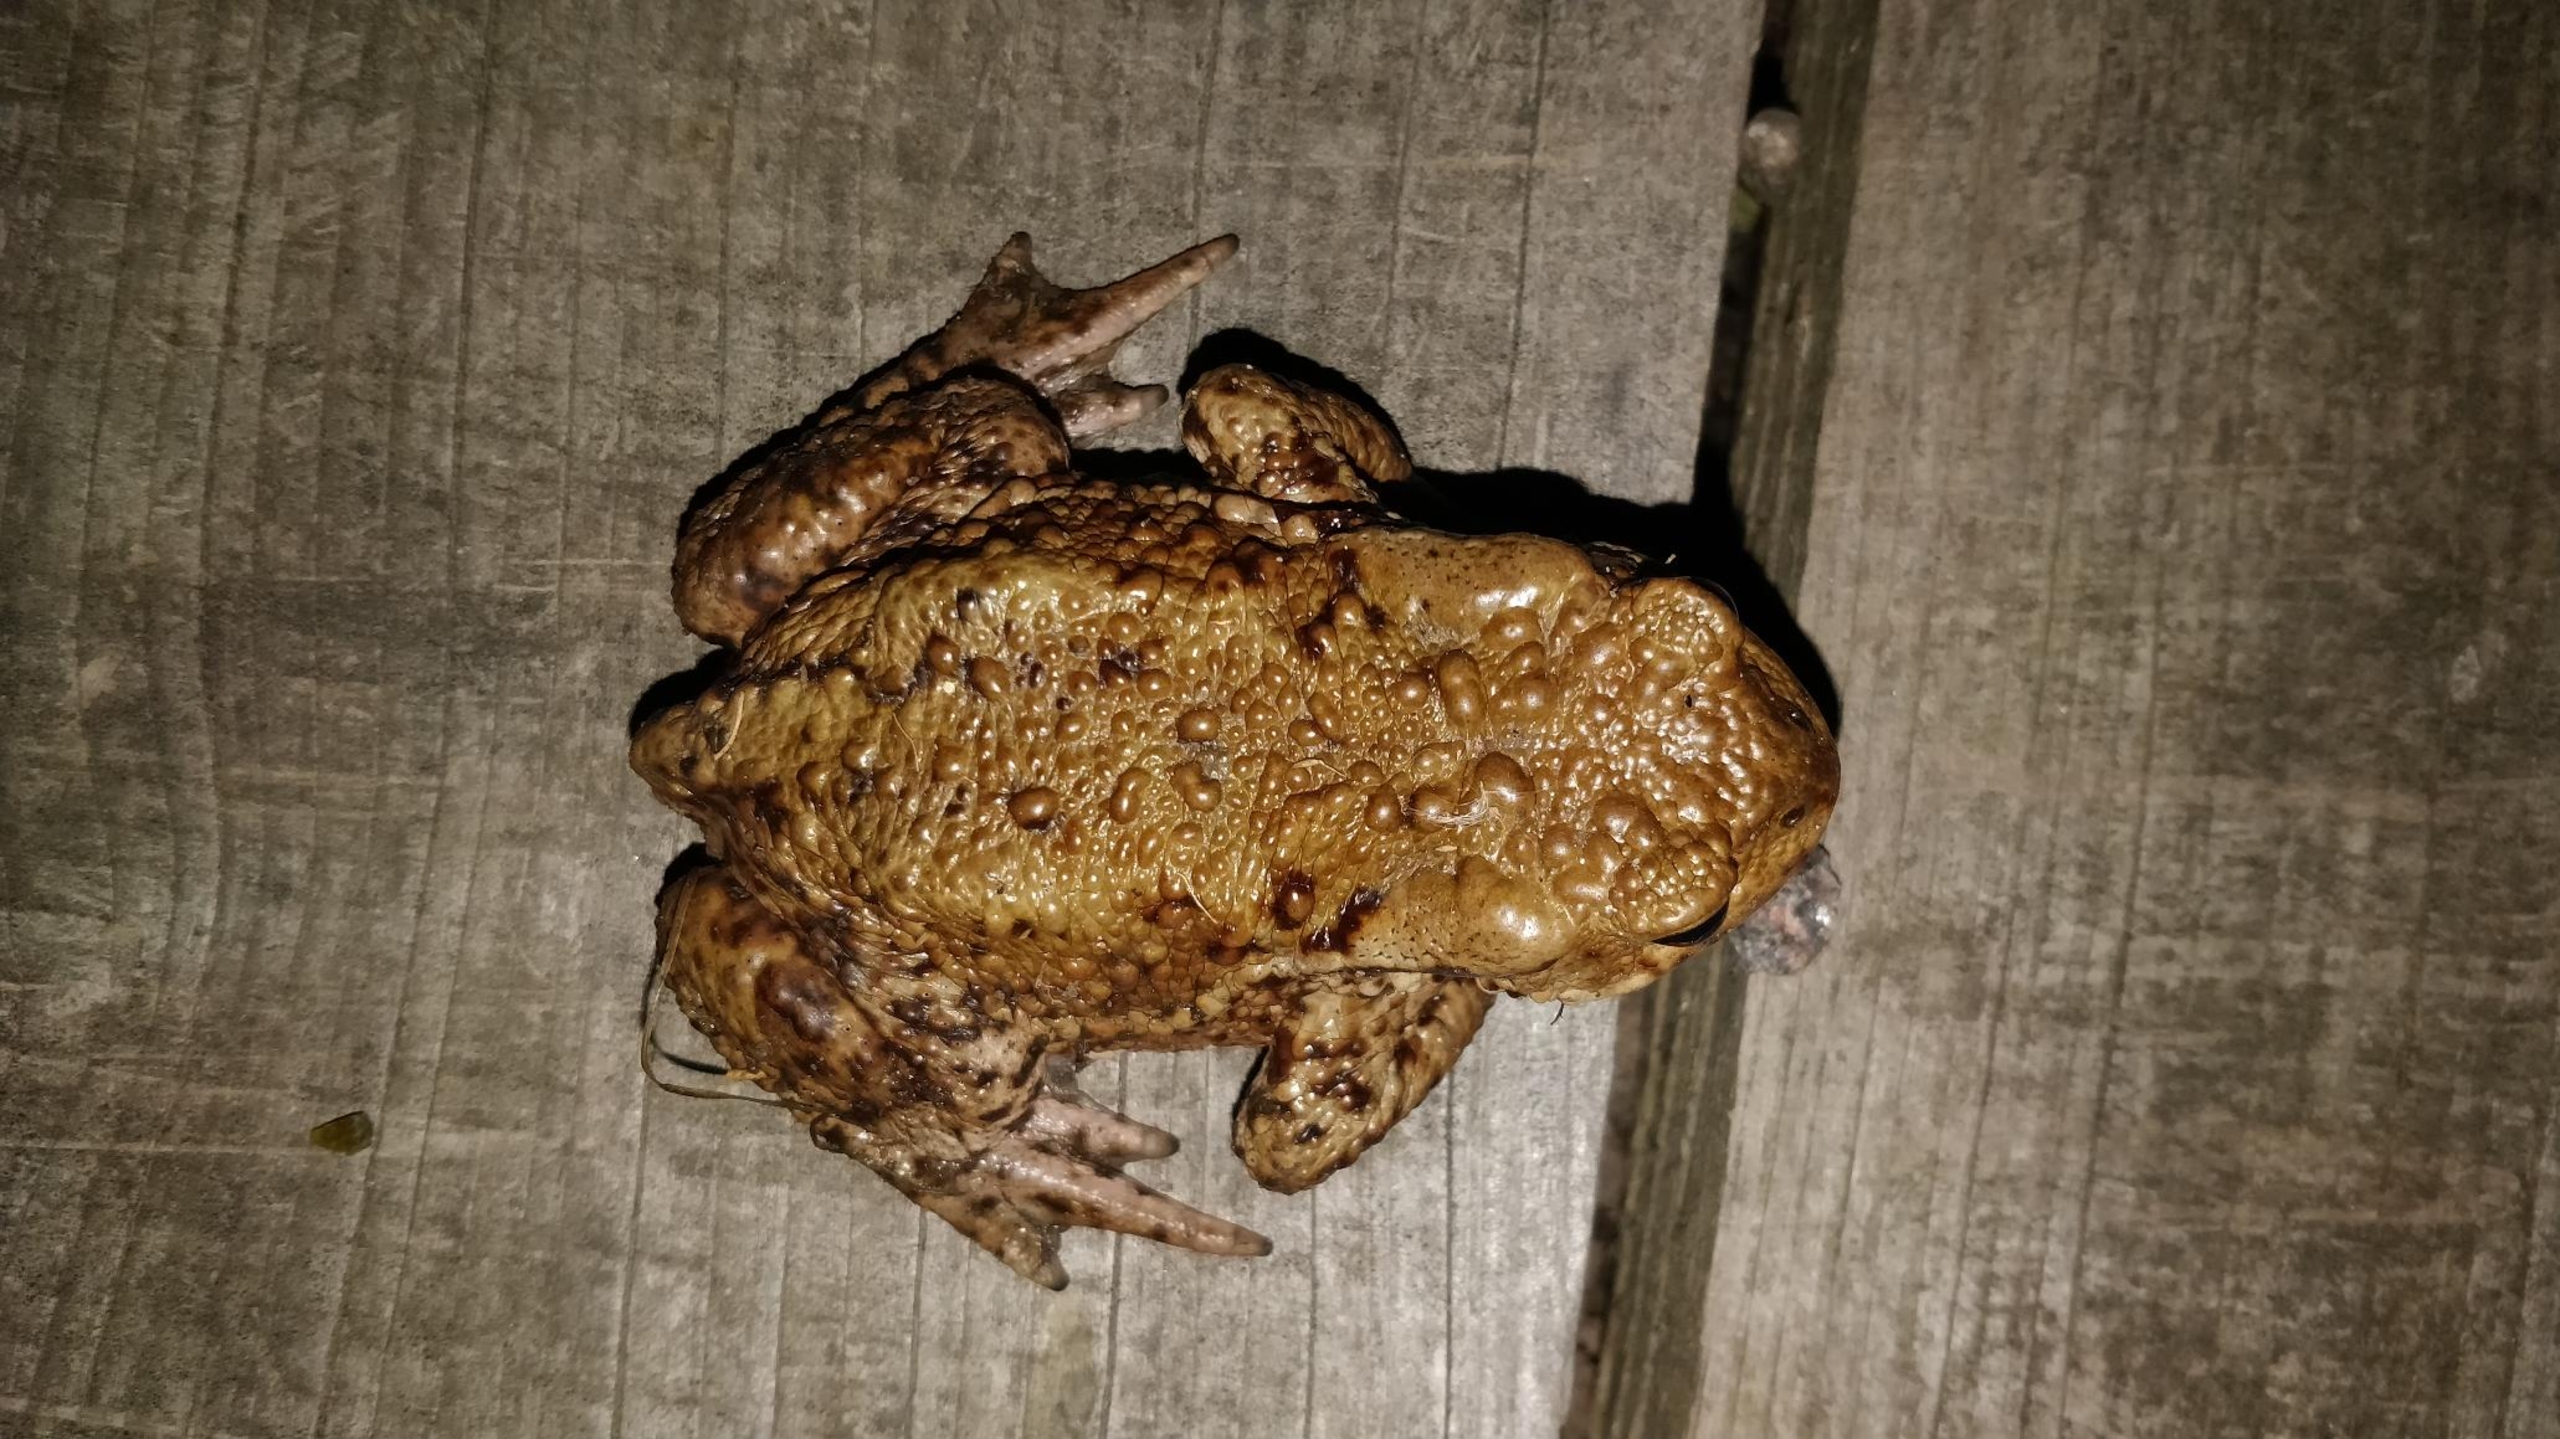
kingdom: Animalia
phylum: Chordata
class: Amphibia
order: Anura
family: Bufonidae
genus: Bufo
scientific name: Bufo bufo
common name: Skrubtudse
